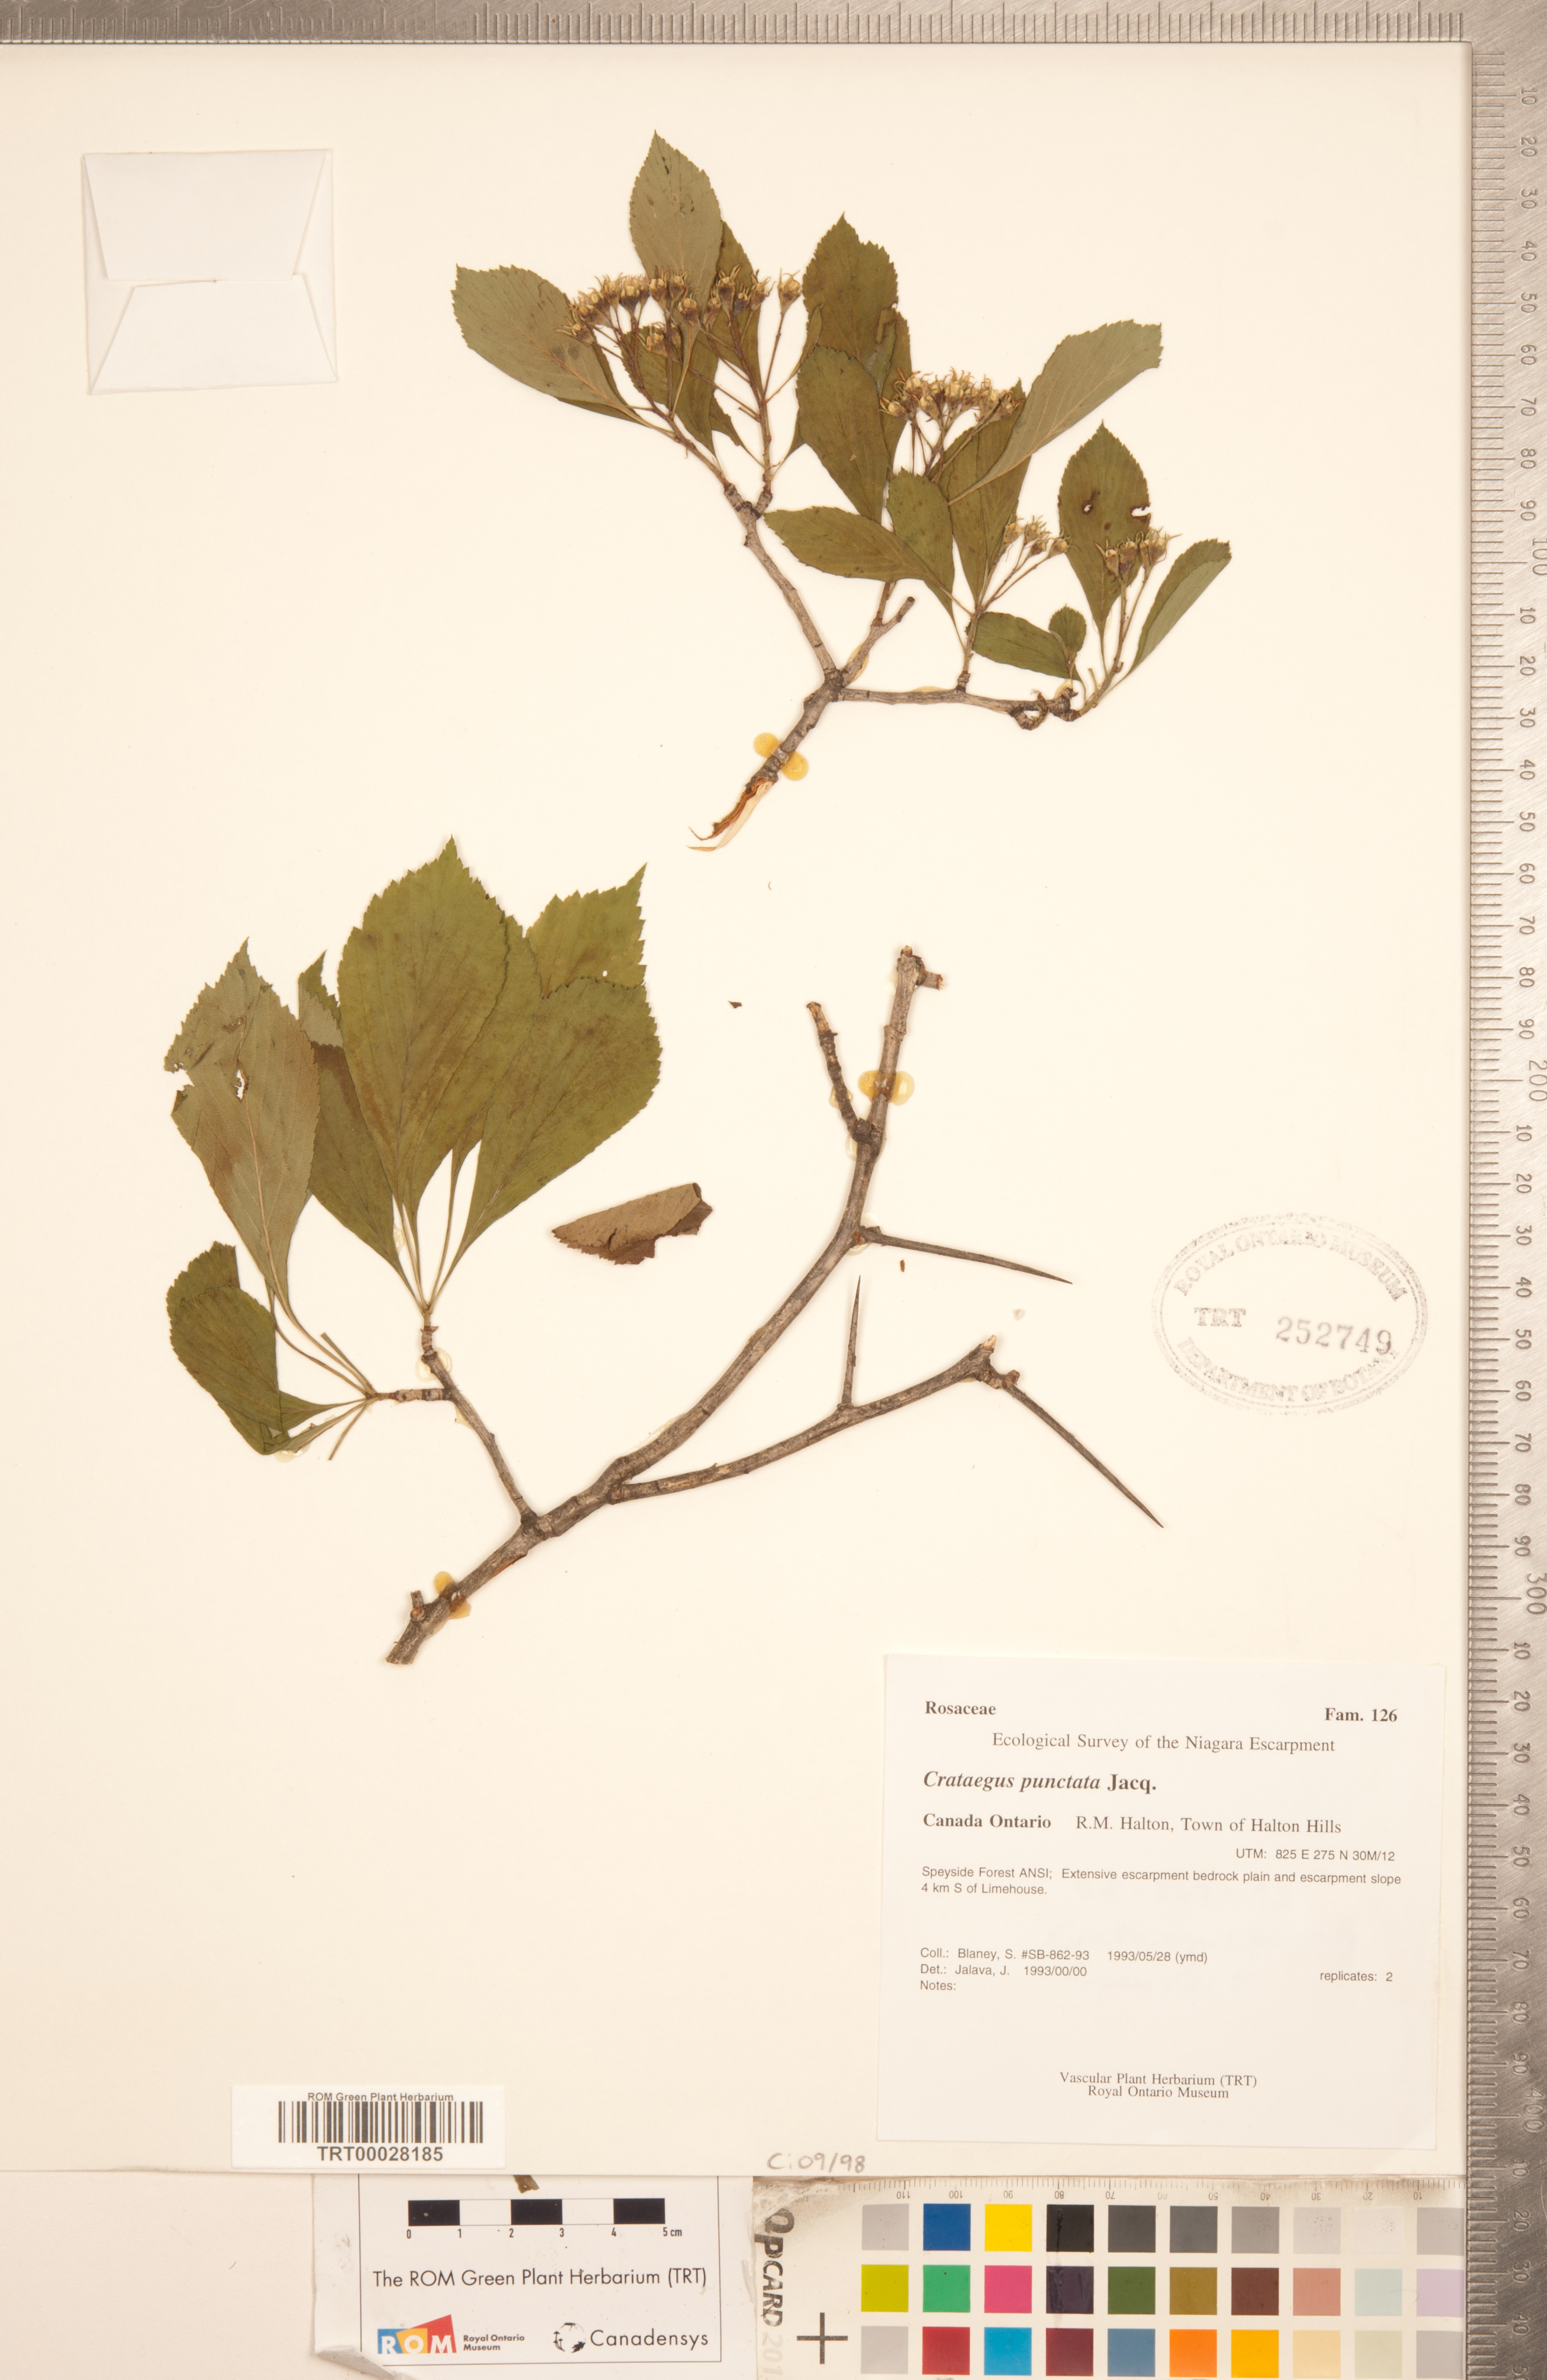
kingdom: Plantae
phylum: Tracheophyta
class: Magnoliopsida
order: Rosales
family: Rosaceae
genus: Crataegus
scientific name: Crataegus punctata
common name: Dotted hawthorn
